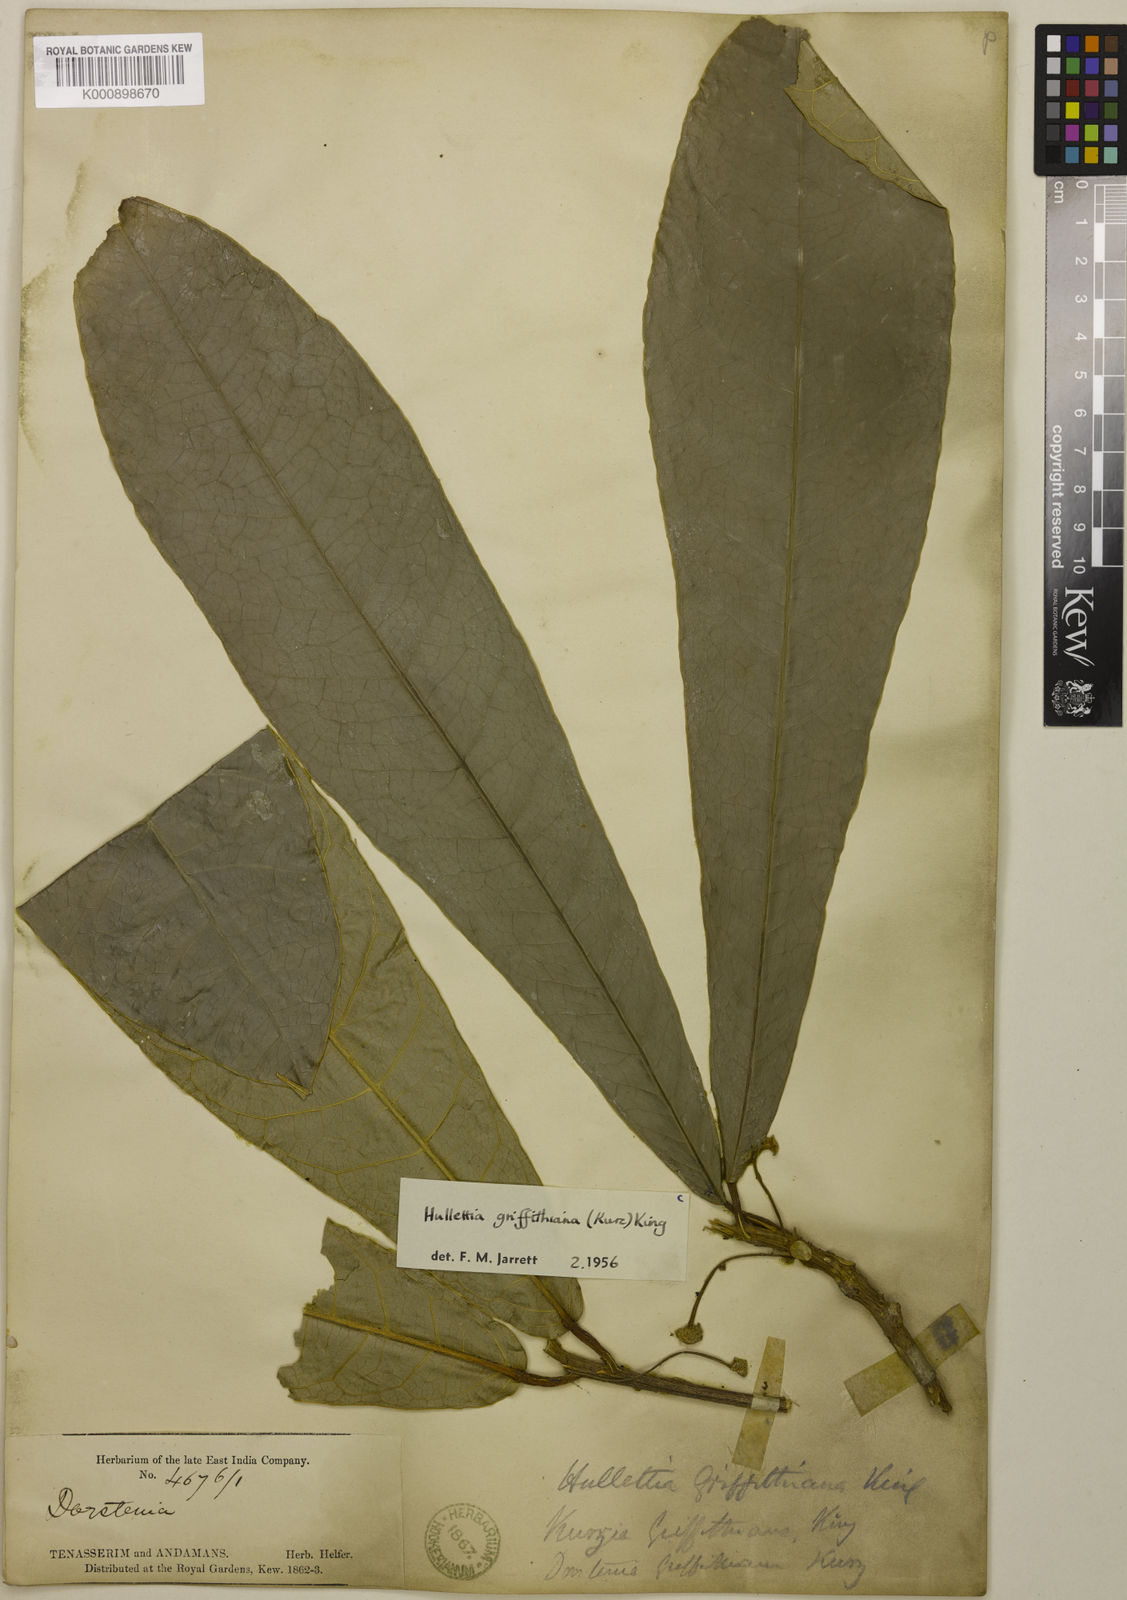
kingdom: Plantae
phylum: Tracheophyta
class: Magnoliopsida
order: Rosales
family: Moraceae
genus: Hullettia
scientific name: Hullettia
